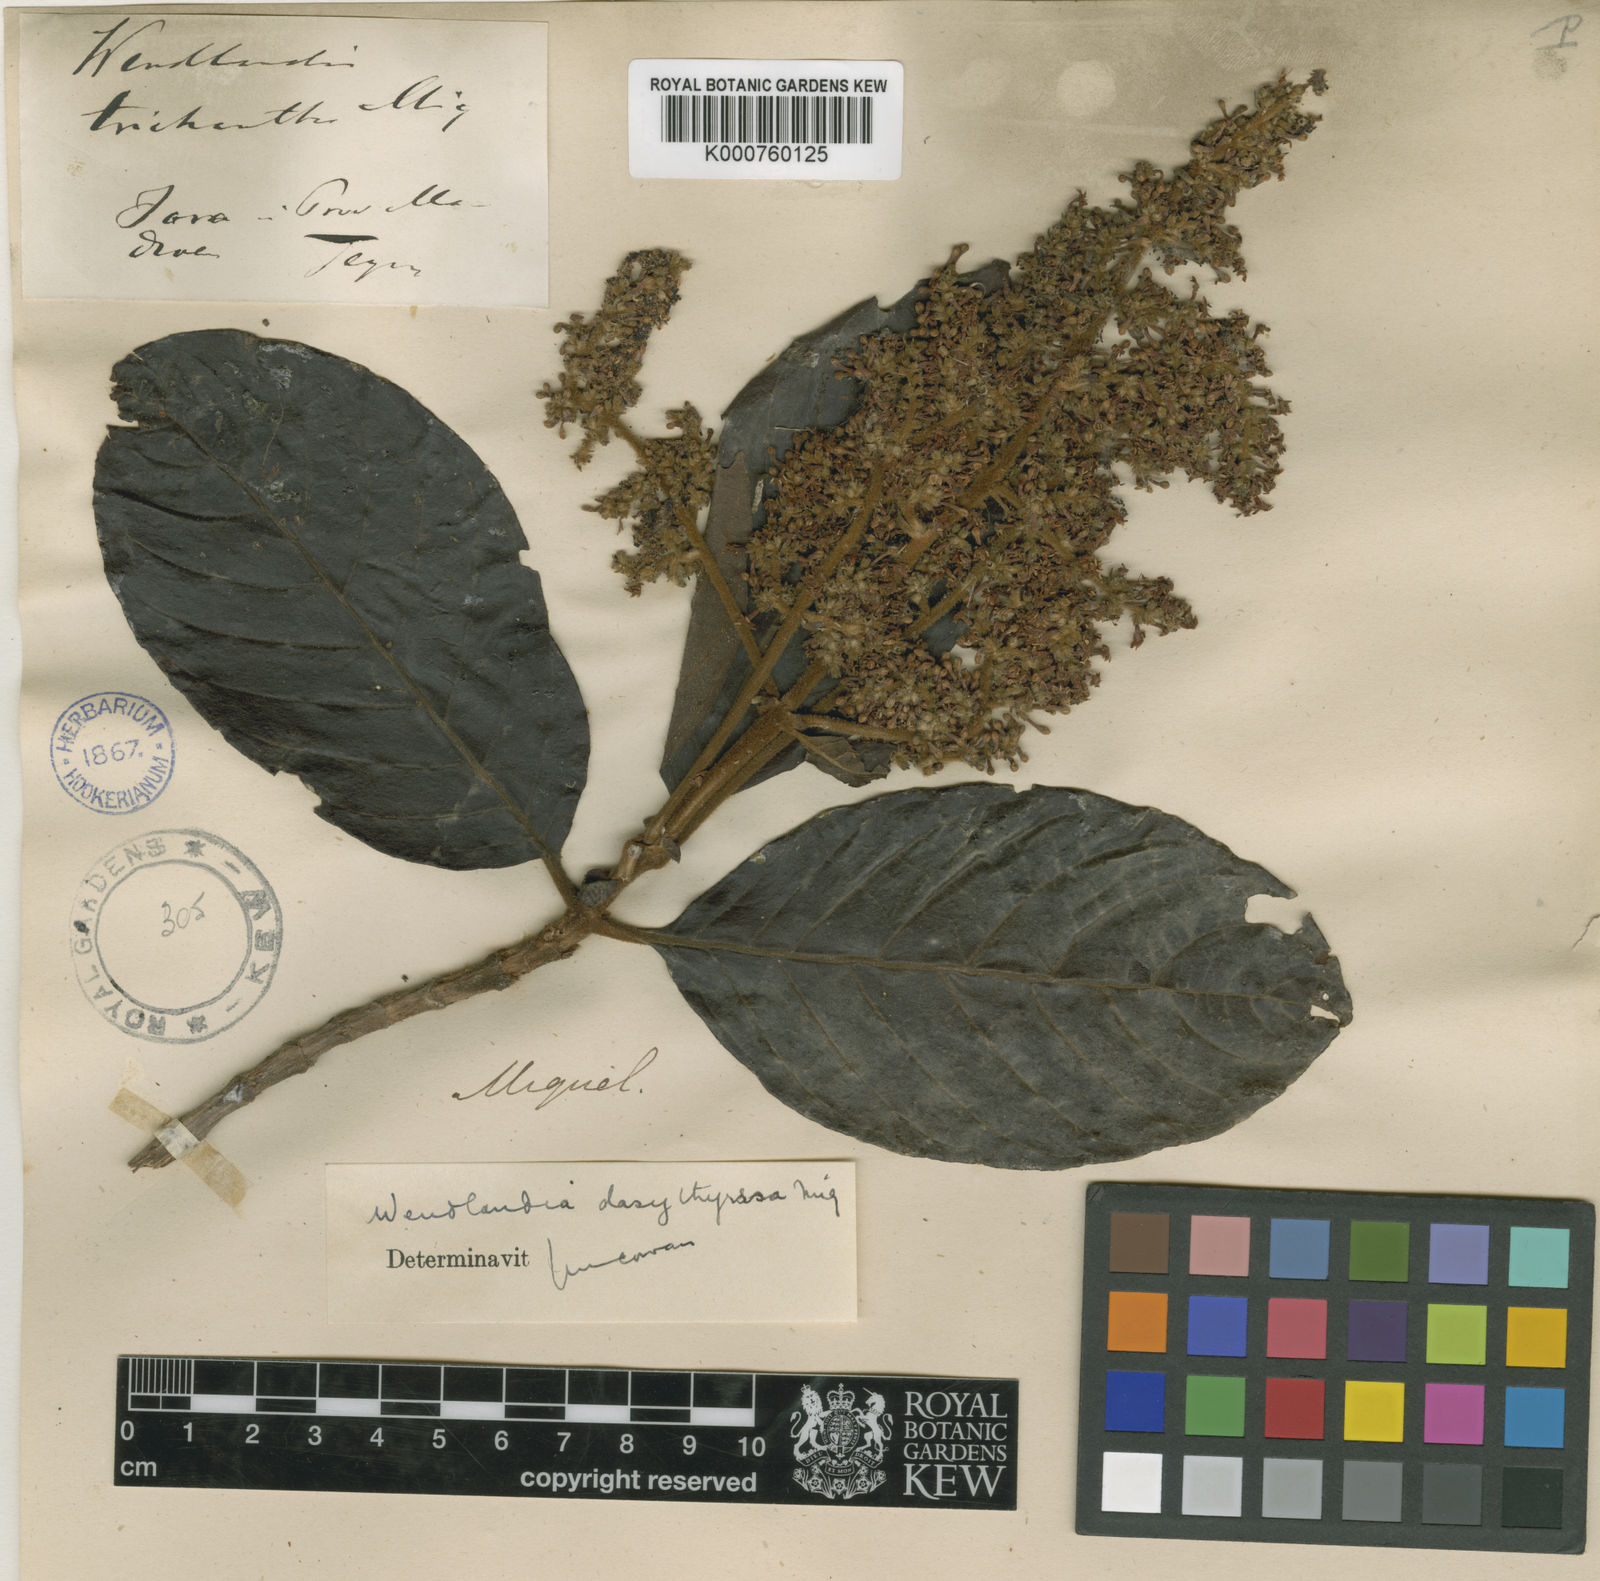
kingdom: Plantae
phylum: Tracheophyta
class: Magnoliopsida
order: Gentianales
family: Rubiaceae
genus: Wendlandia
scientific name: Wendlandia densiflora
